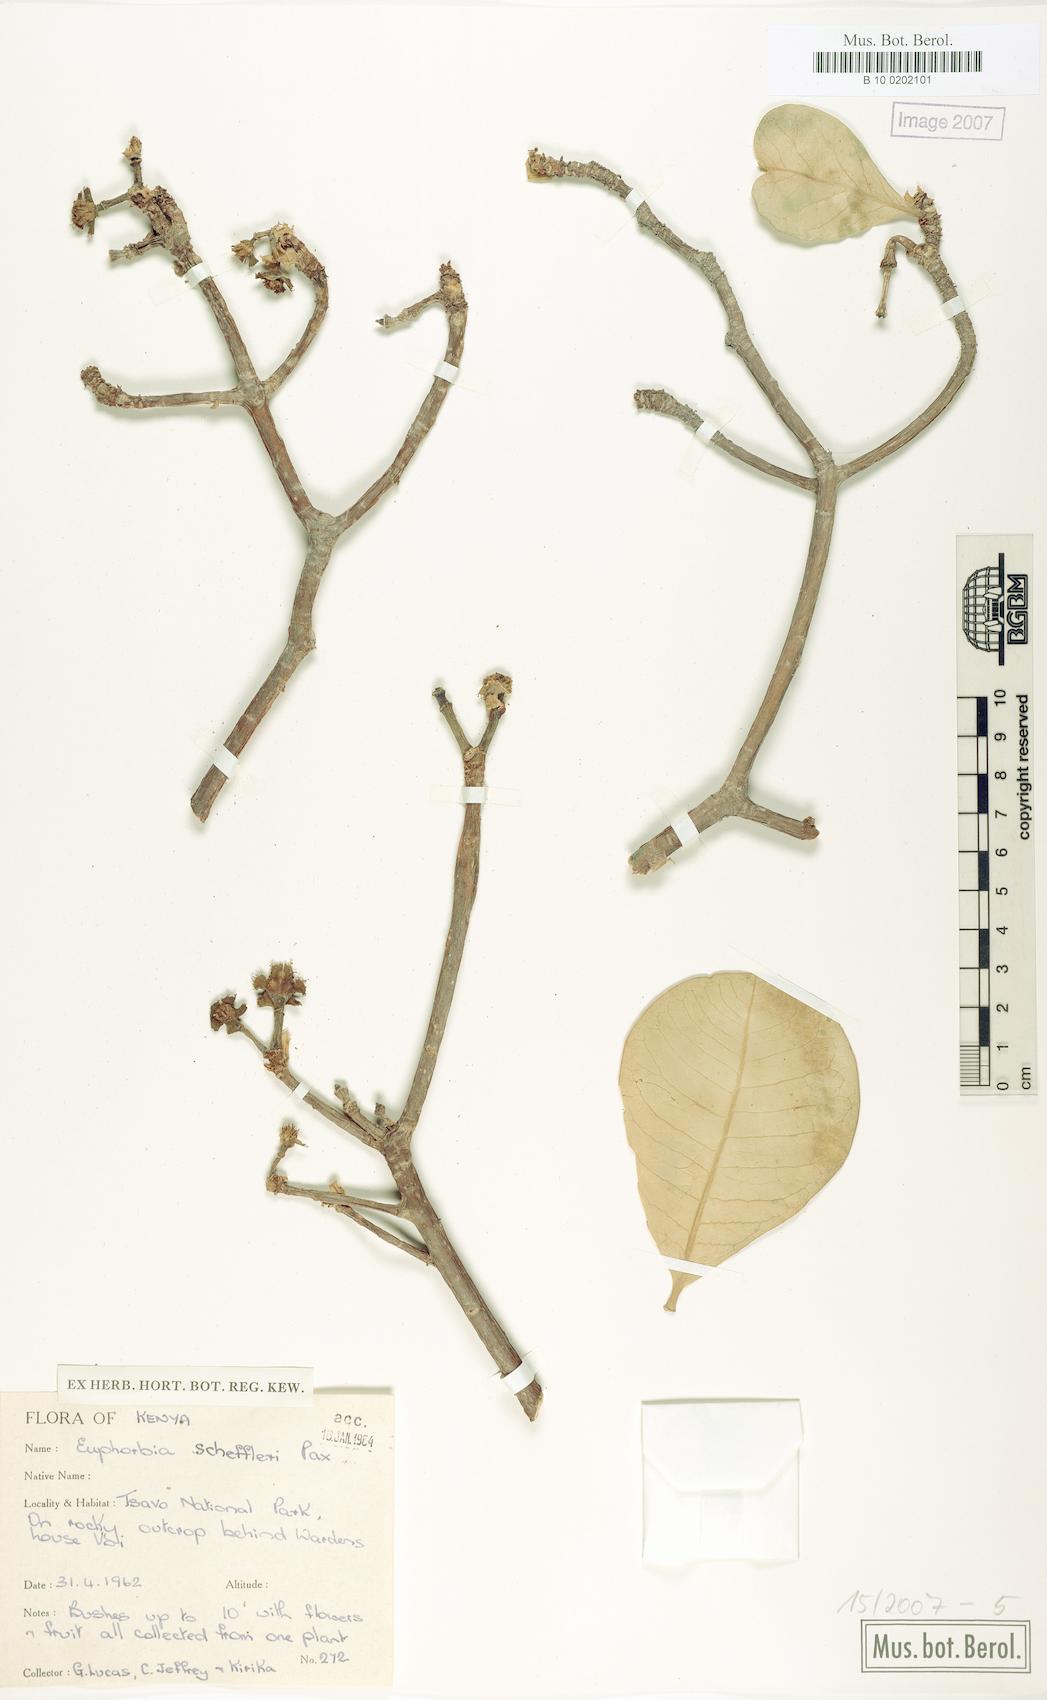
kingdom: Plantae
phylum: Tracheophyta
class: Magnoliopsida
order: Malpighiales
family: Euphorbiaceae
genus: Euphorbia
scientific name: Euphorbia scheffleri
